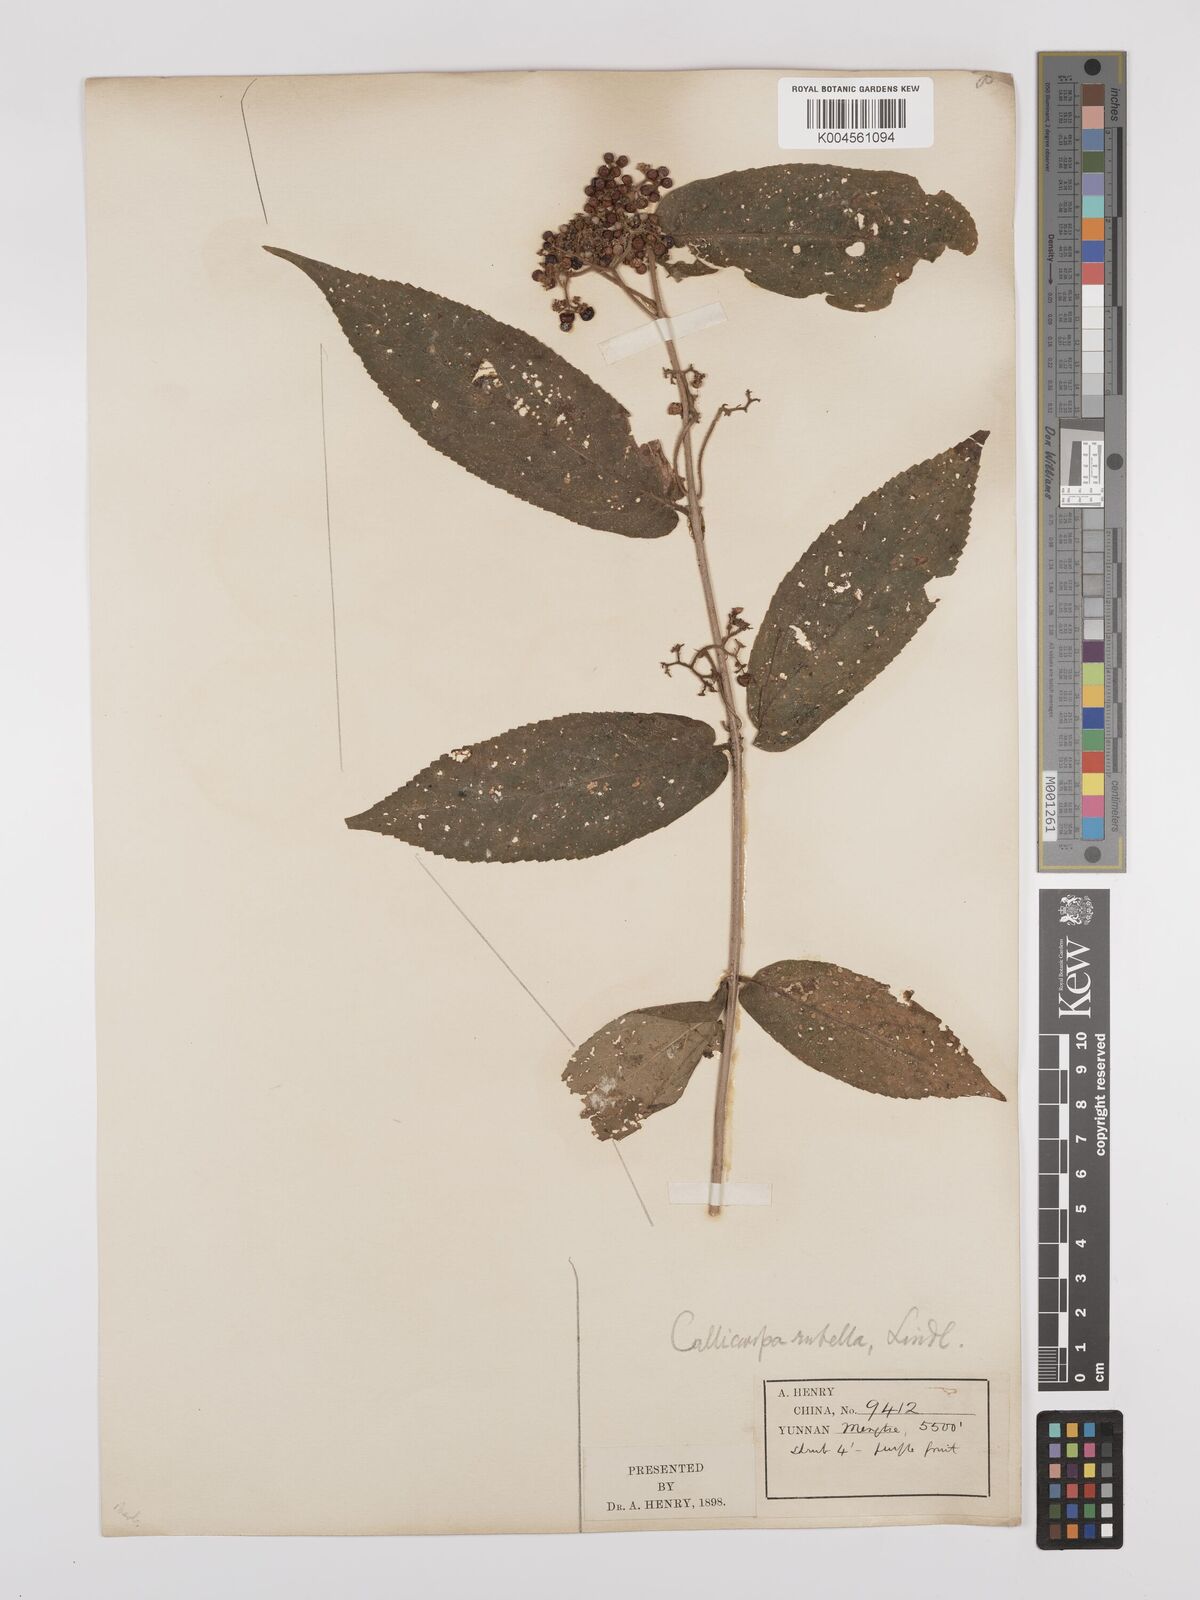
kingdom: Plantae
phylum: Tracheophyta
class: Magnoliopsida
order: Lamiales
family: Lamiaceae
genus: Callicarpa
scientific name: Callicarpa rubella
